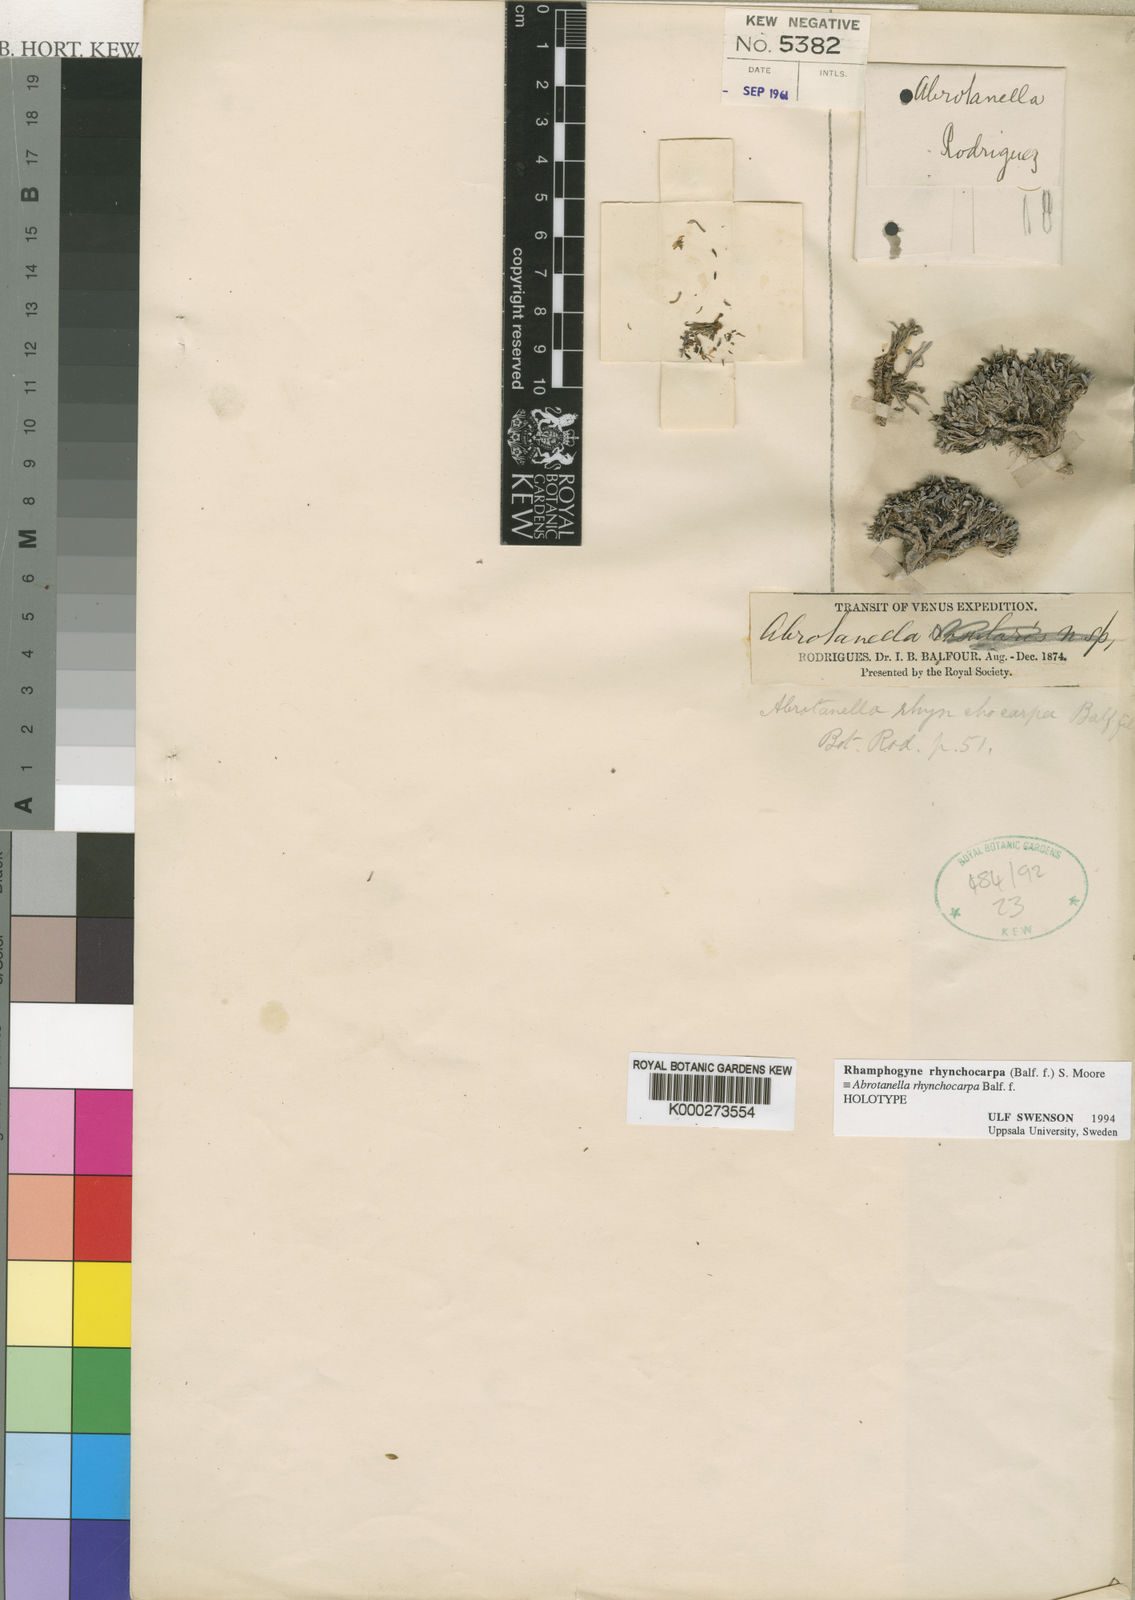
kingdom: Plantae
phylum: Tracheophyta
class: Magnoliopsida
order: Asterales
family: Asteraceae
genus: Rhamphogyne
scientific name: Rhamphogyne rhynchocarpa
